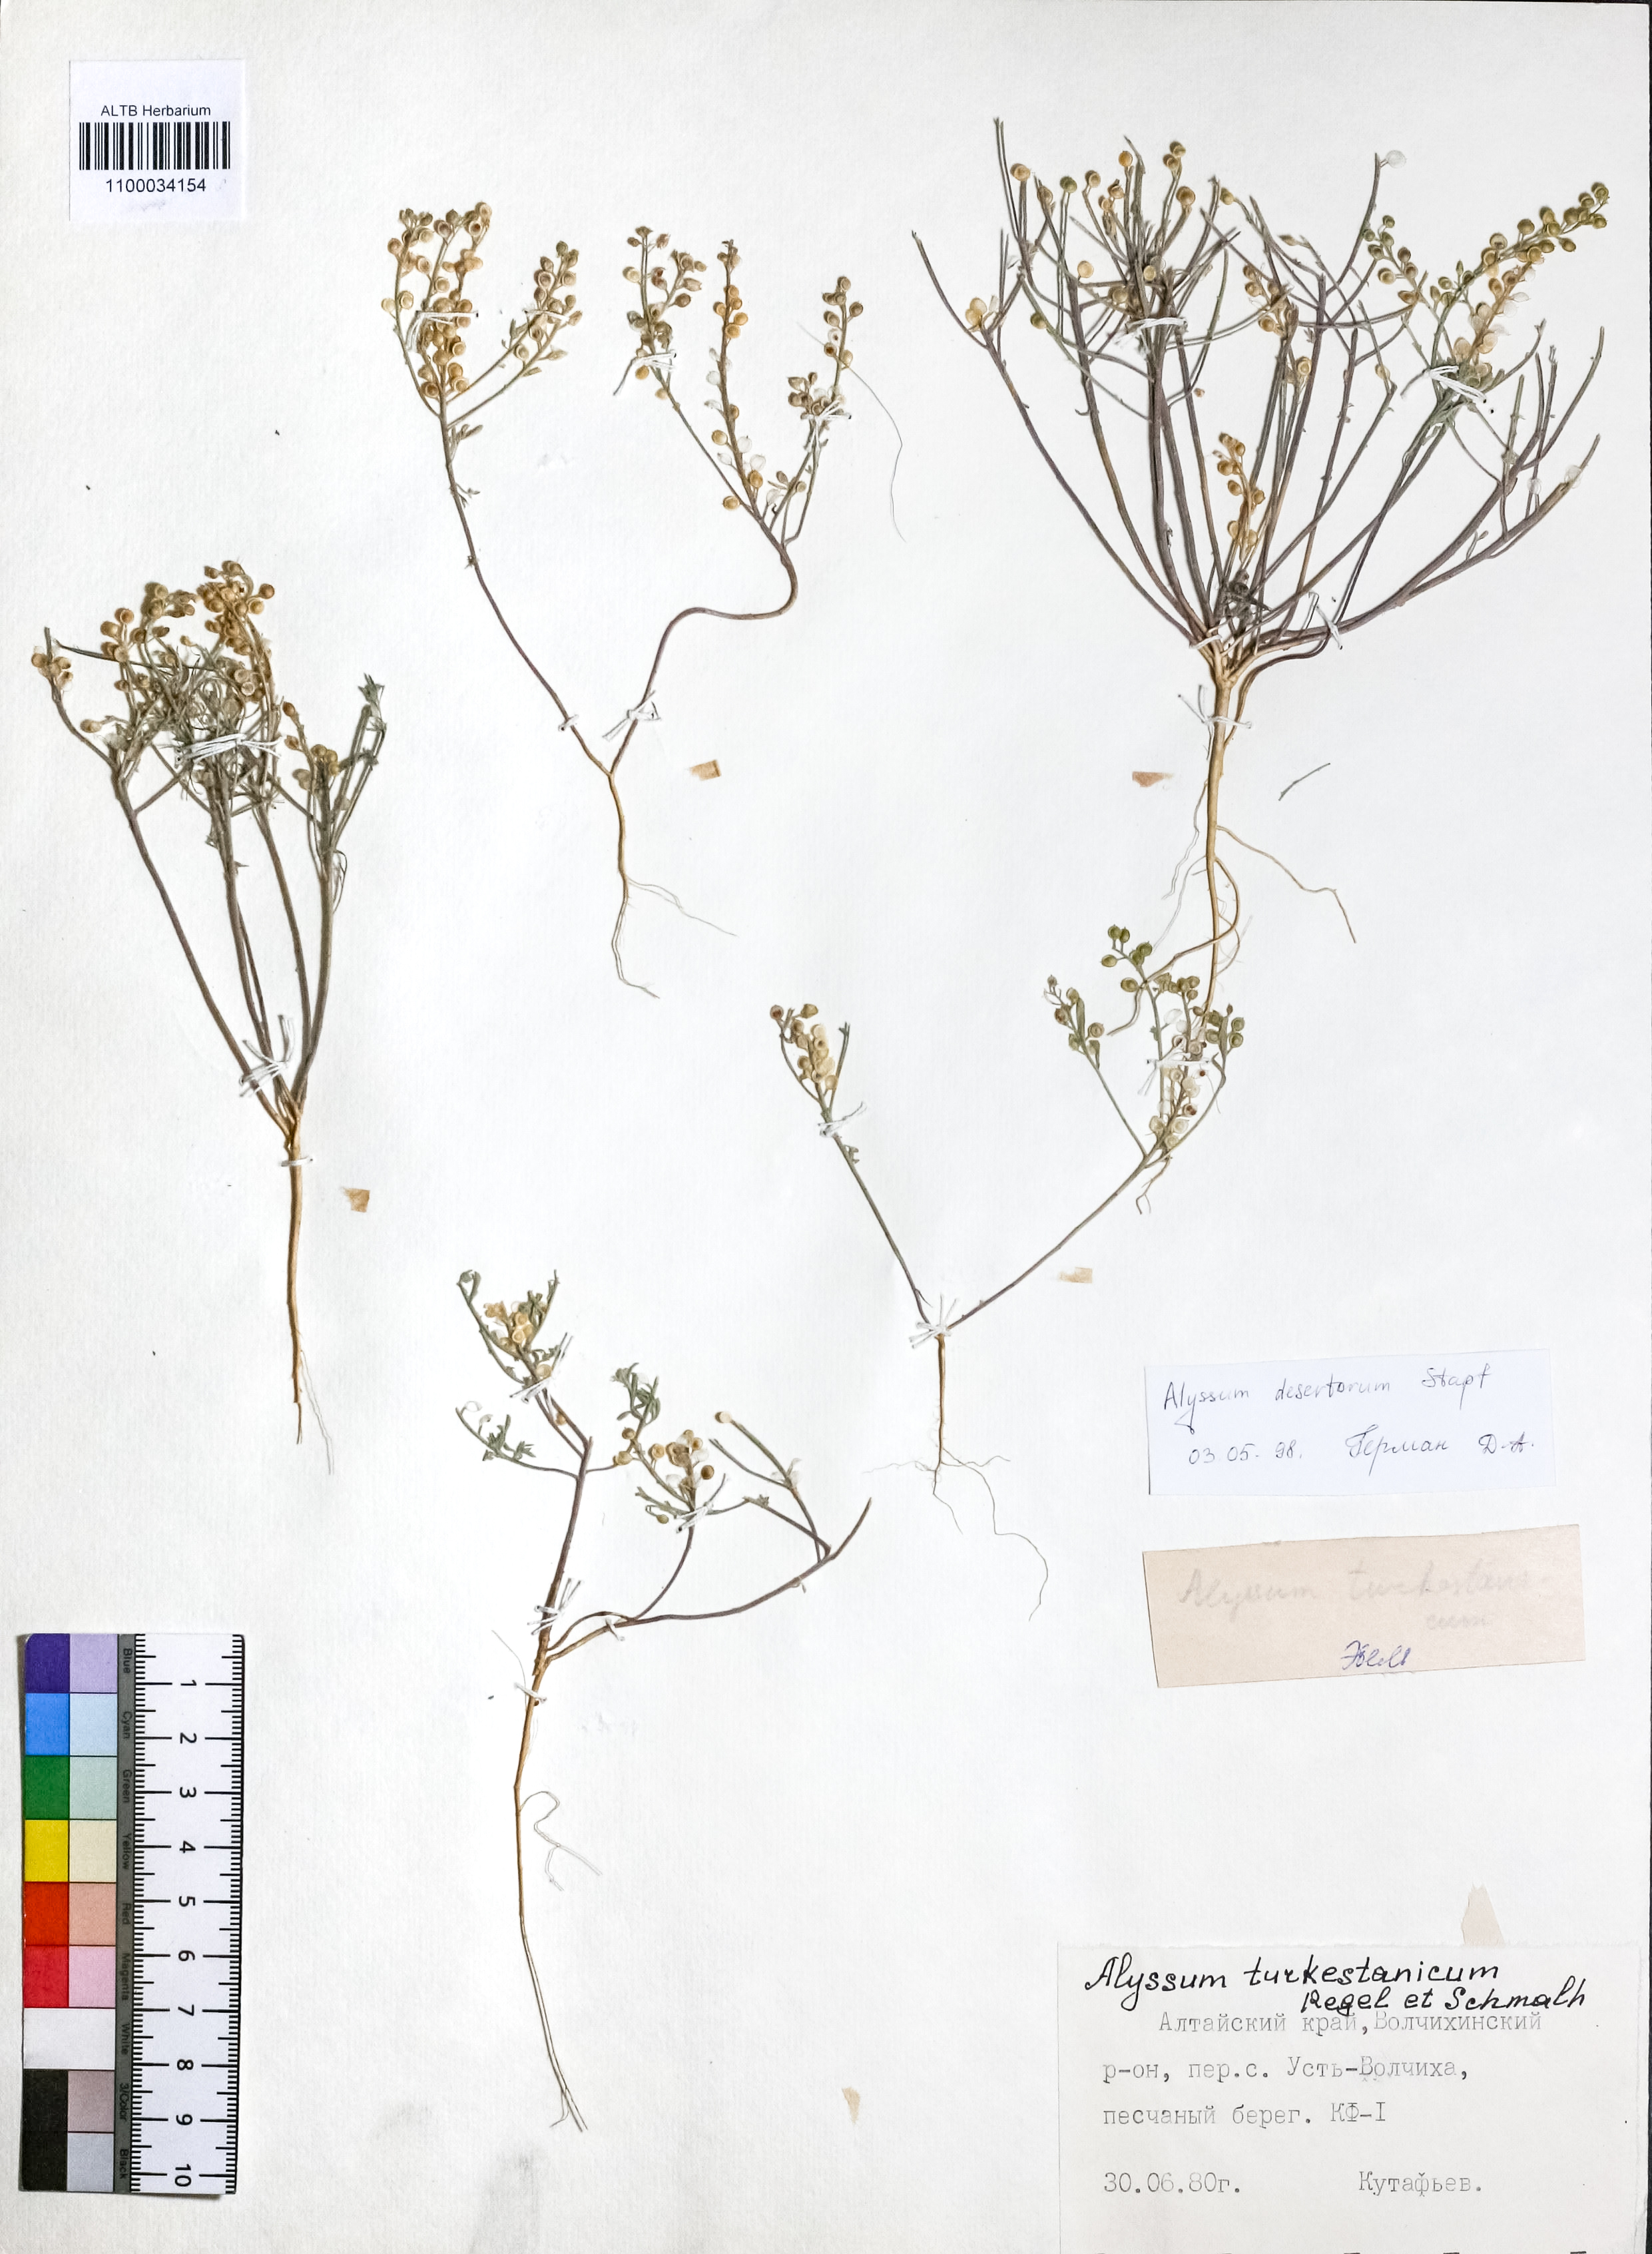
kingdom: Plantae
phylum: Tracheophyta
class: Magnoliopsida
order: Brassicales
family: Brassicaceae
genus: Alyssum
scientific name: Alyssum turkestanicum
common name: Desert alyssum
